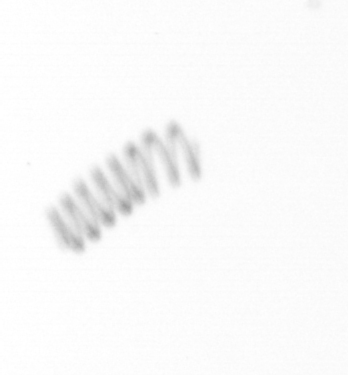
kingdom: Chromista
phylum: Ochrophyta
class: Bacillariophyceae
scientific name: Bacillariophyceae
